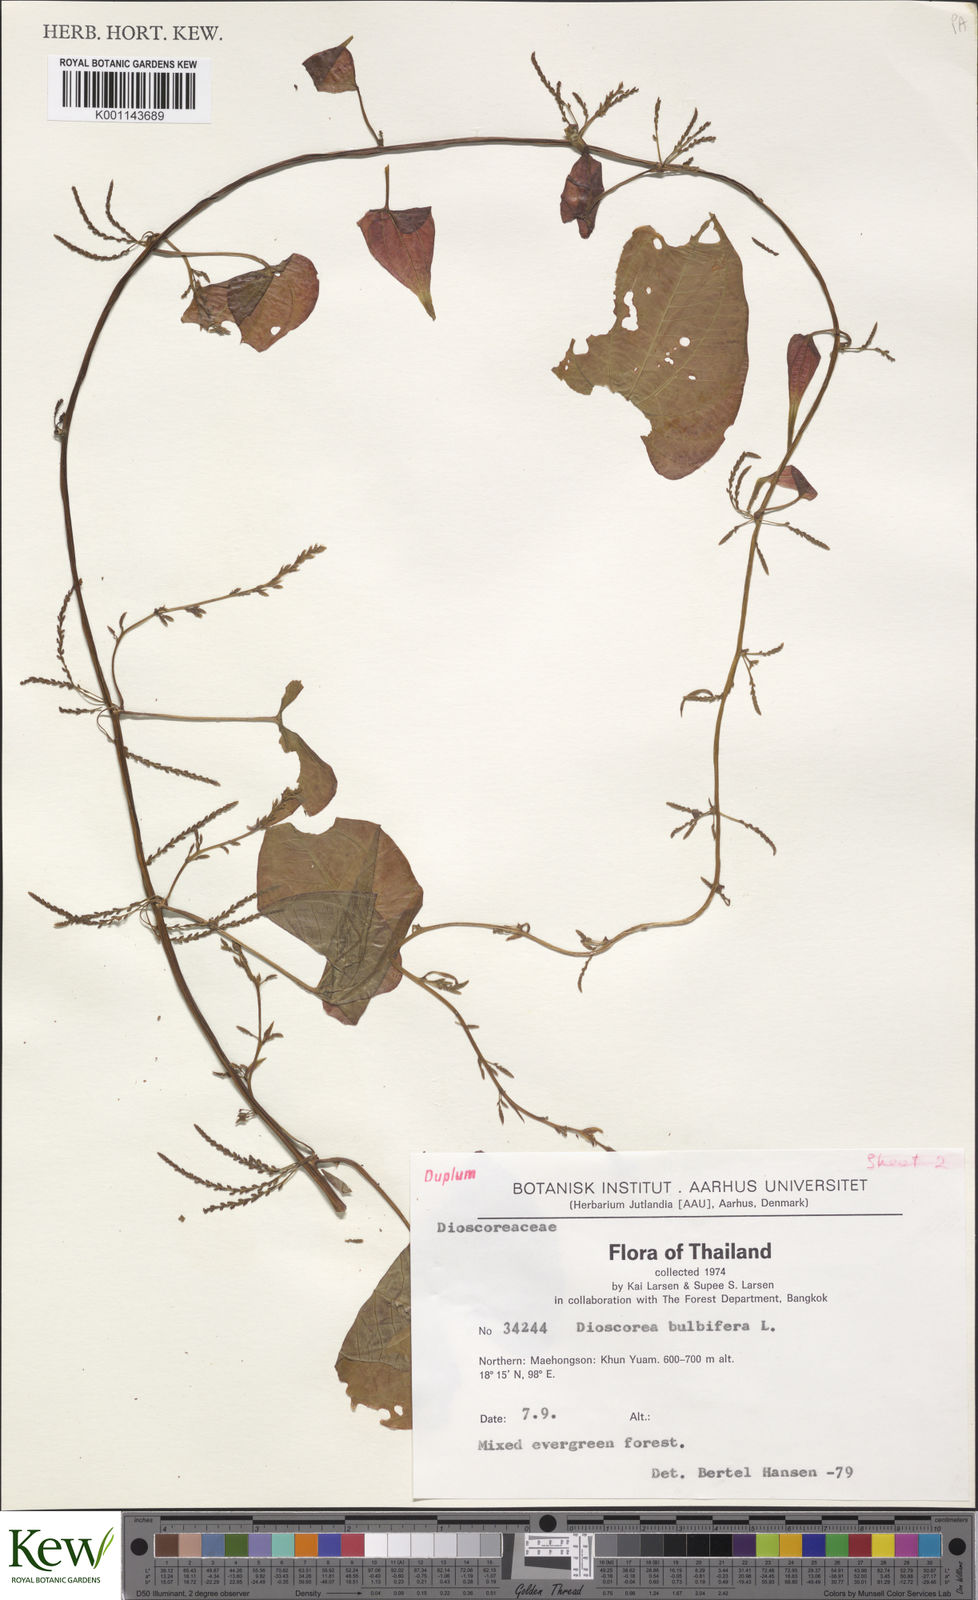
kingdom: Plantae
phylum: Tracheophyta
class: Liliopsida
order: Dioscoreales
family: Dioscoreaceae
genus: Dioscorea
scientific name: Dioscorea bulbifera
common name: Air yam
